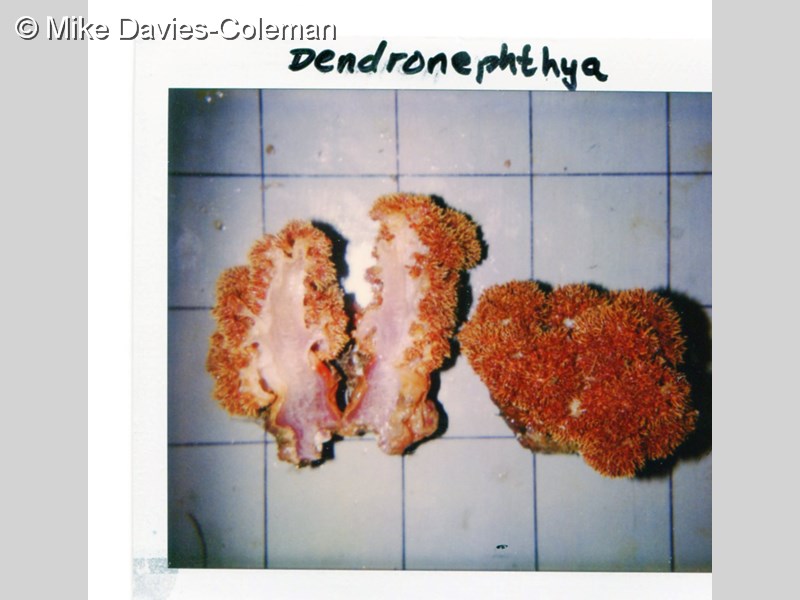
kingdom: Animalia
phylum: Cnidaria
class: Anthozoa
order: Malacalcyonacea
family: Nephtheidae
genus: Dendronephthya
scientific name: Dendronephthya
